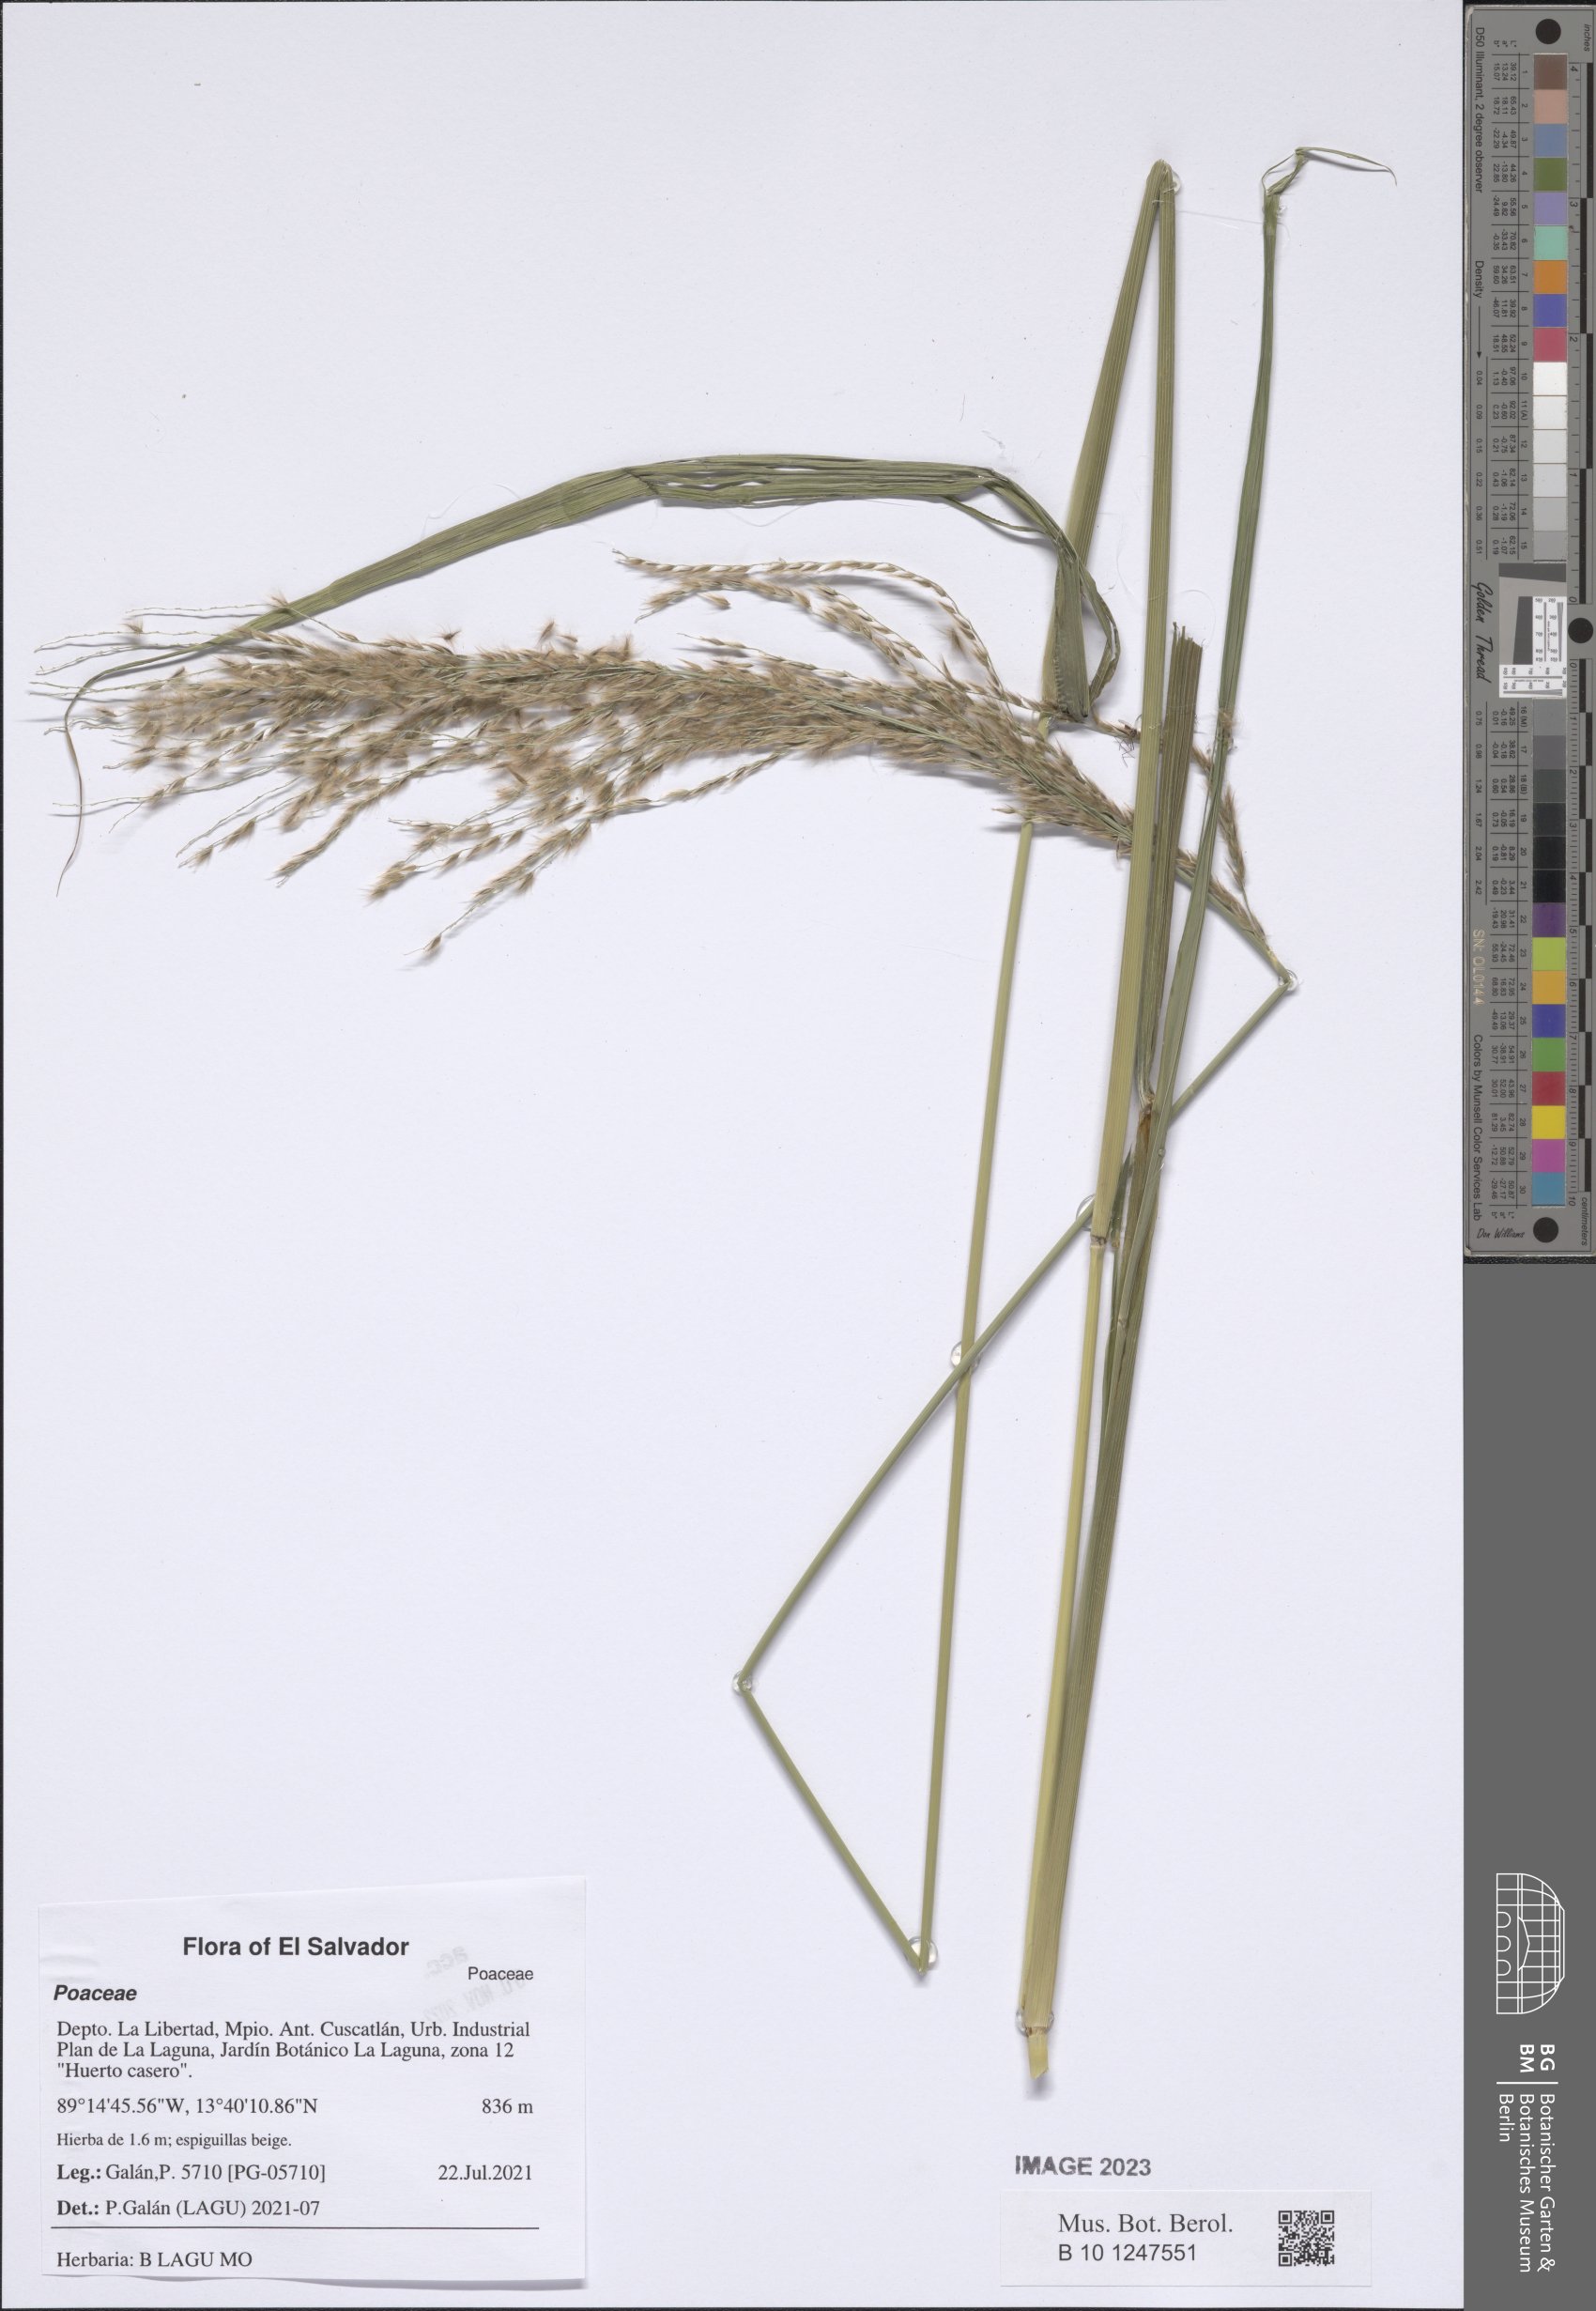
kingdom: Plantae
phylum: Tracheophyta
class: Liliopsida
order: Poales
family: Poaceae
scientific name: Poaceae
